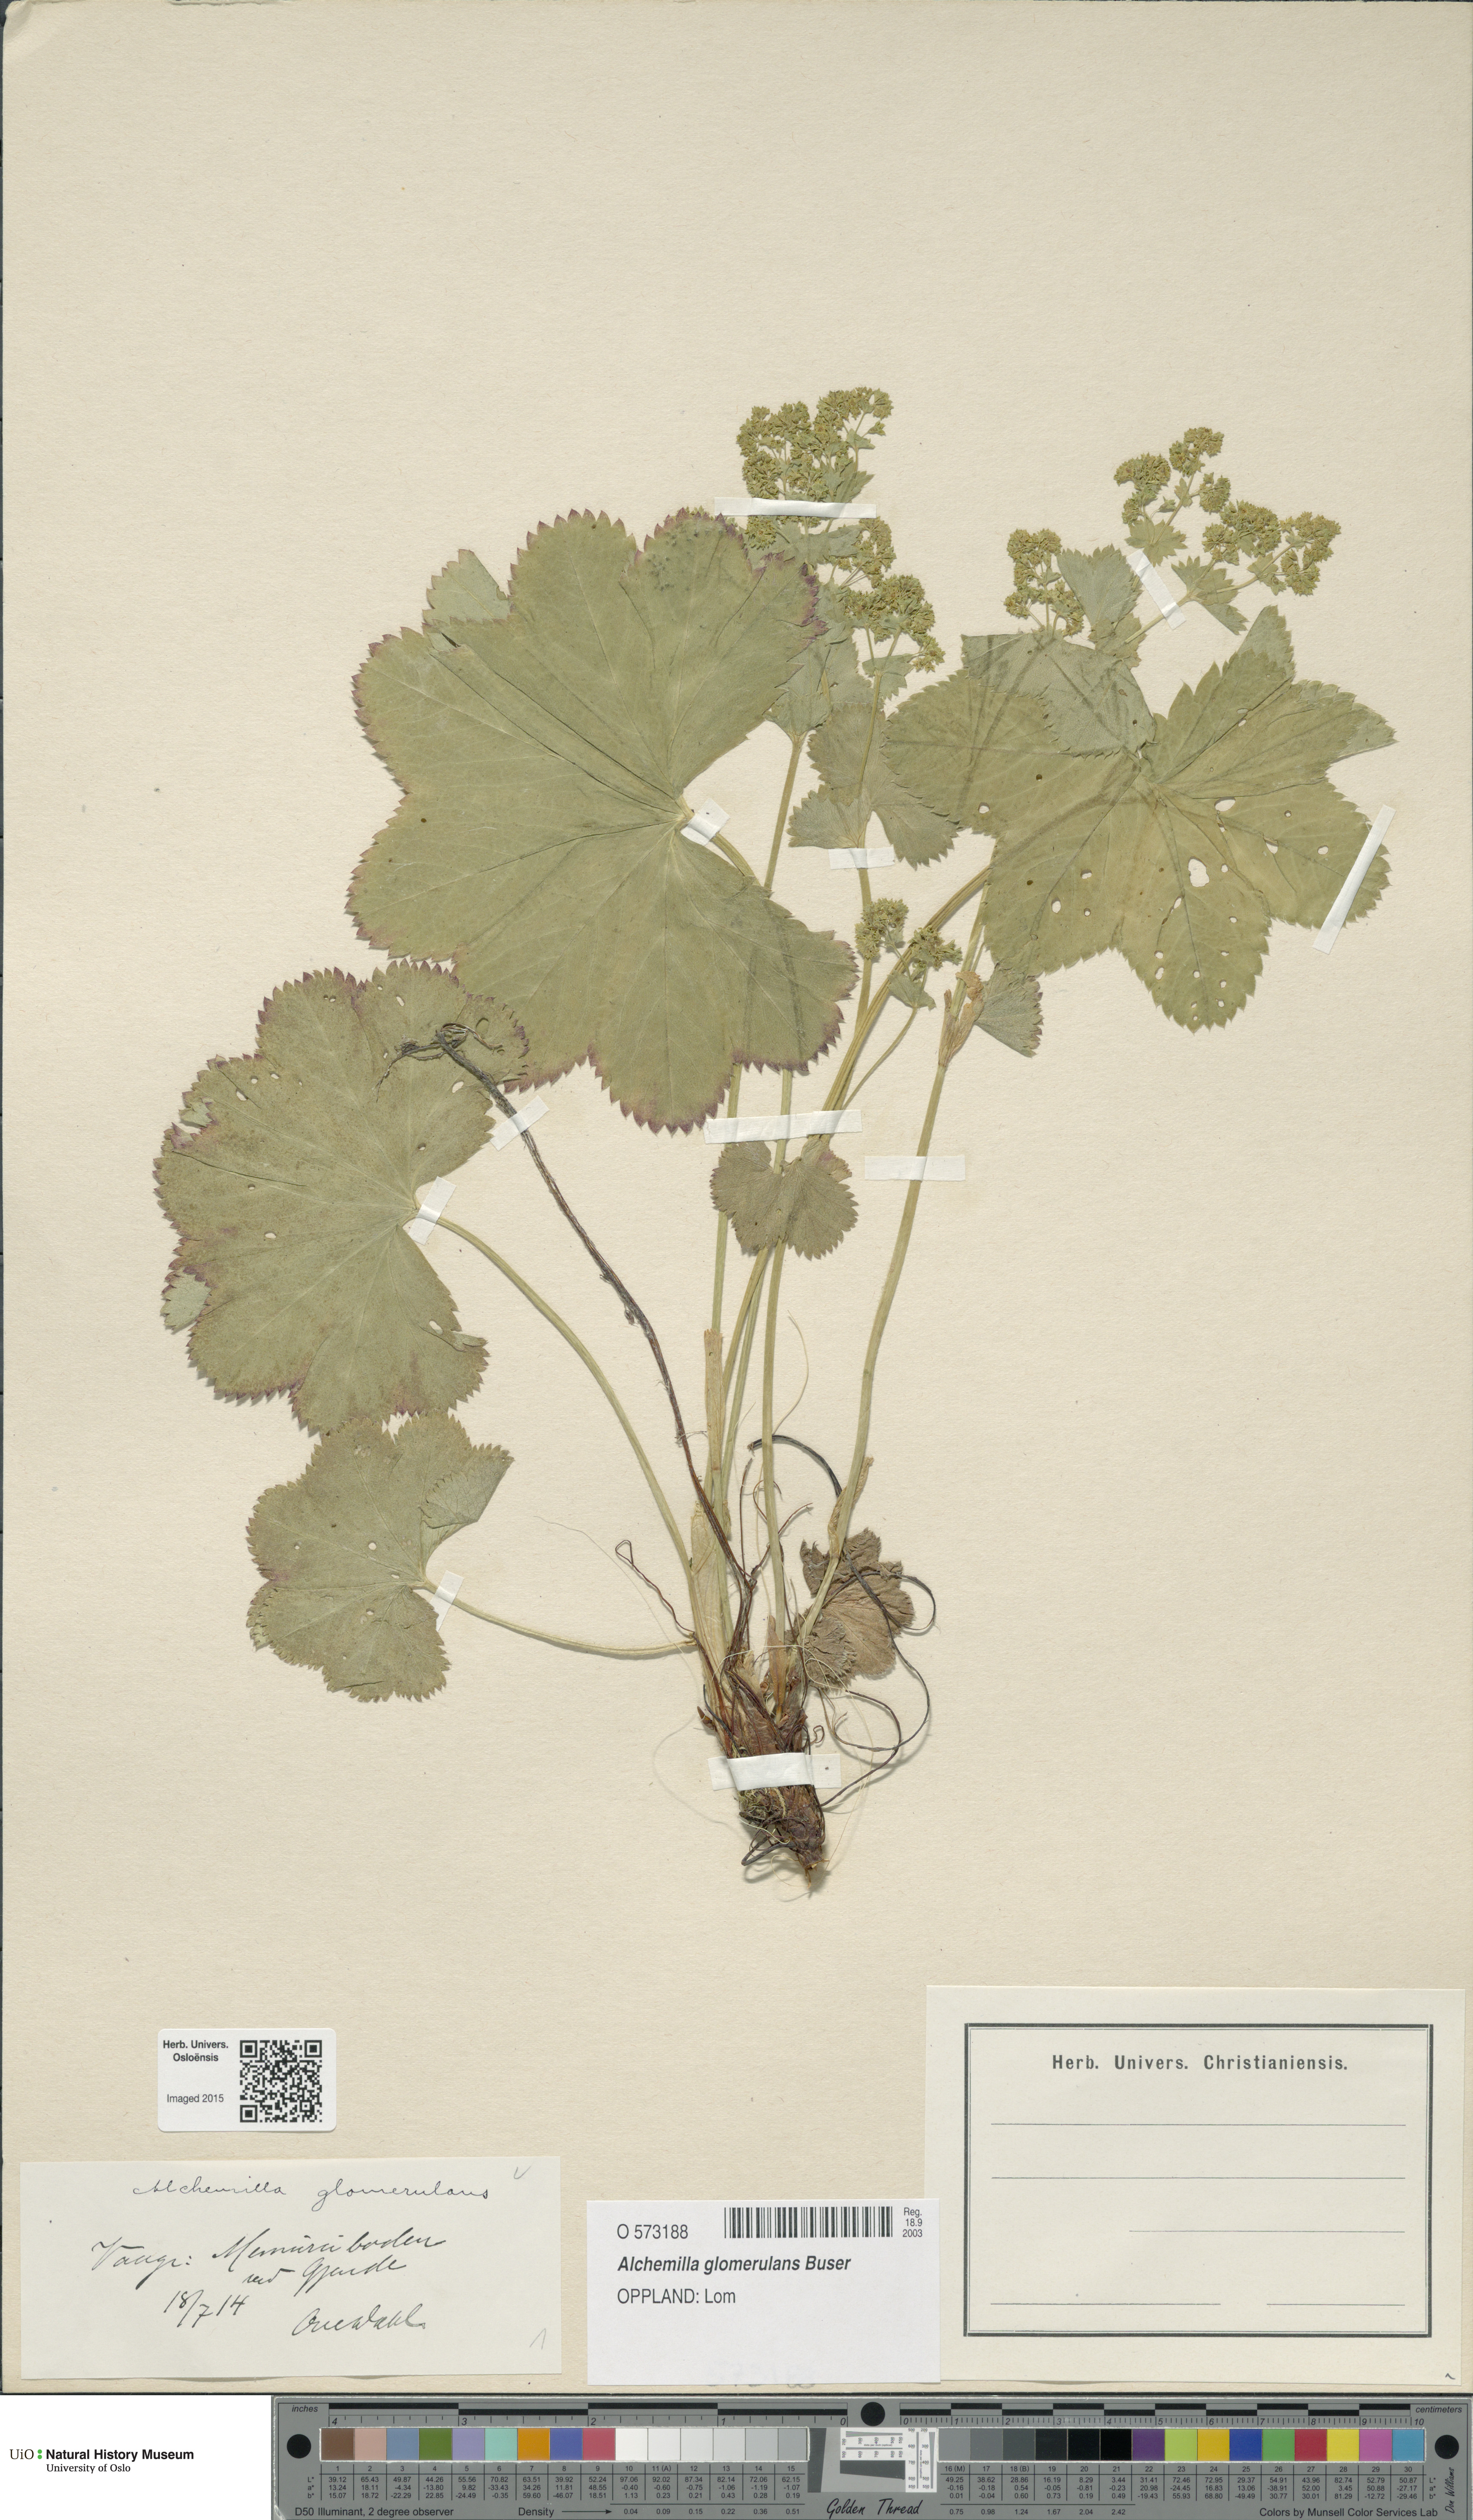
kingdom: Plantae
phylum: Tracheophyta
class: Magnoliopsida
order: Rosales
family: Rosaceae
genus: Alchemilla
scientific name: Alchemilla glomerulans
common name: Clustered lady's mantle
